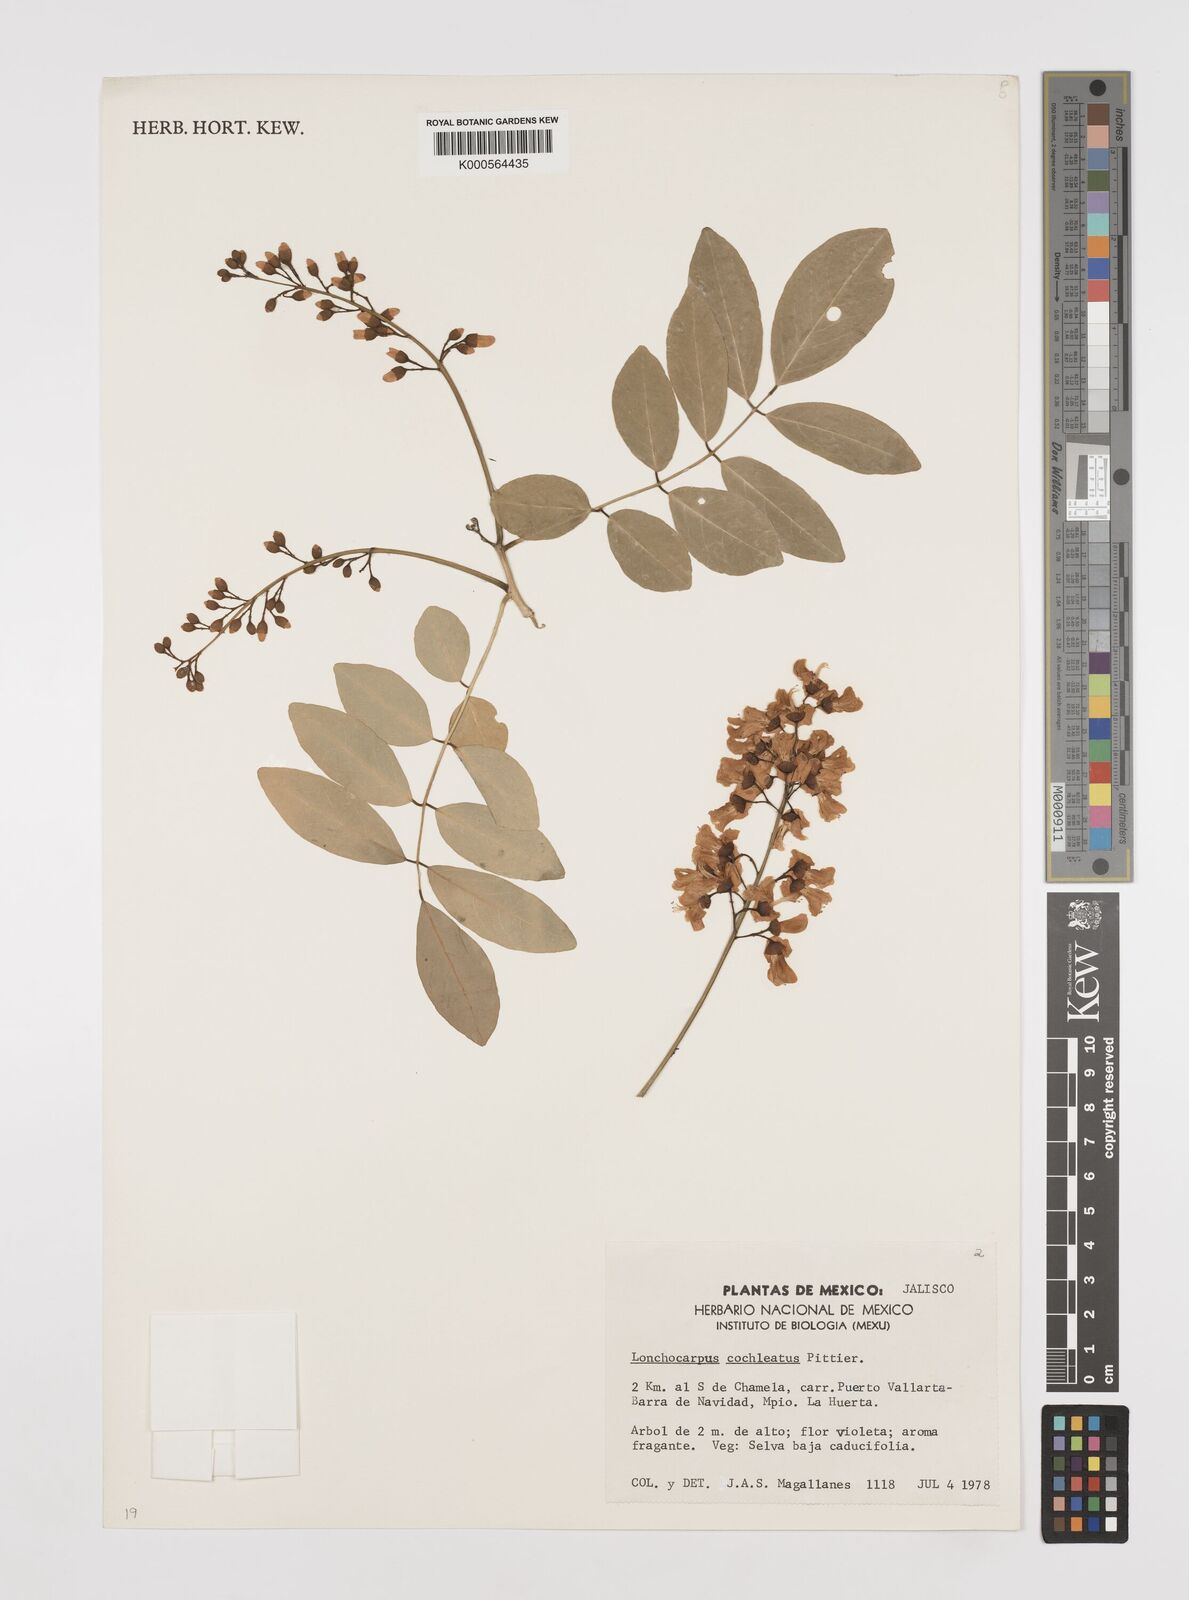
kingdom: Plantae
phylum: Tracheophyta
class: Magnoliopsida
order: Fabales
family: Fabaceae
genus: Lonchocarpus
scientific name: Lonchocarpus cochleatus
